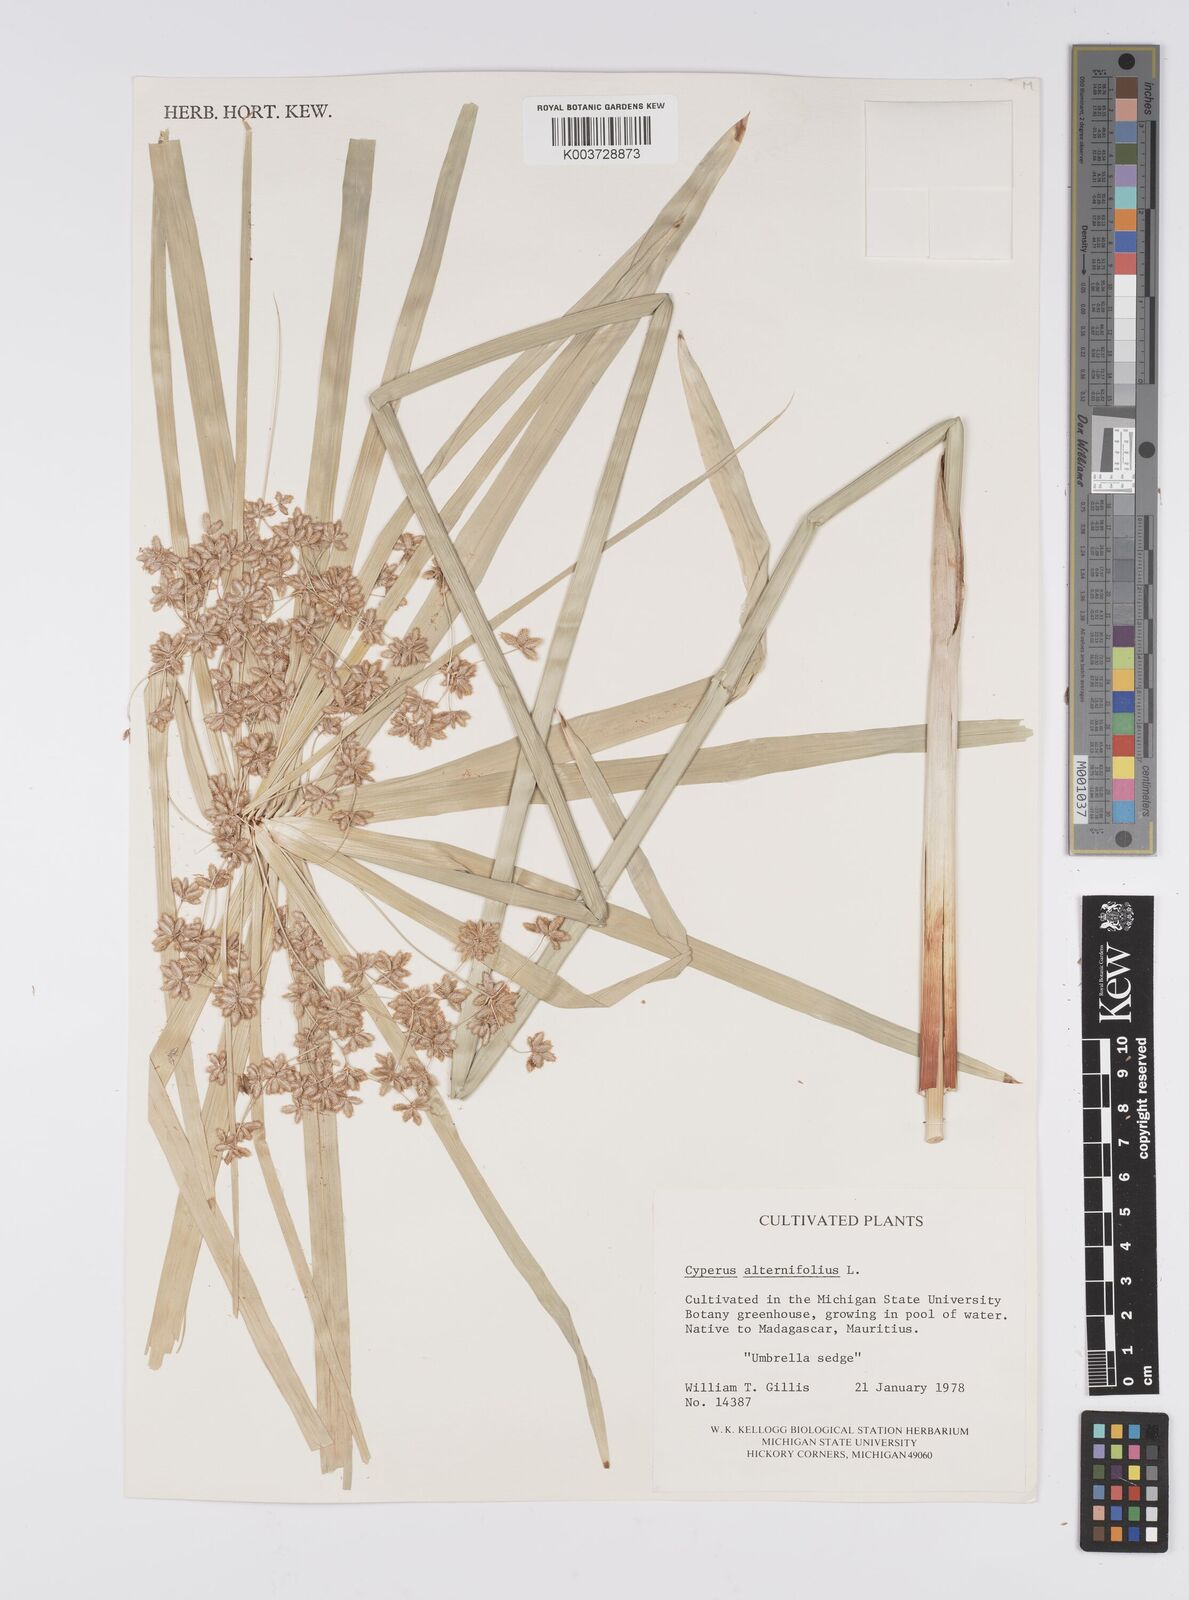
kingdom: Plantae
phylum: Tracheophyta
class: Liliopsida
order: Poales
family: Cyperaceae
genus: Cyperus
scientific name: Cyperus alternifolius
